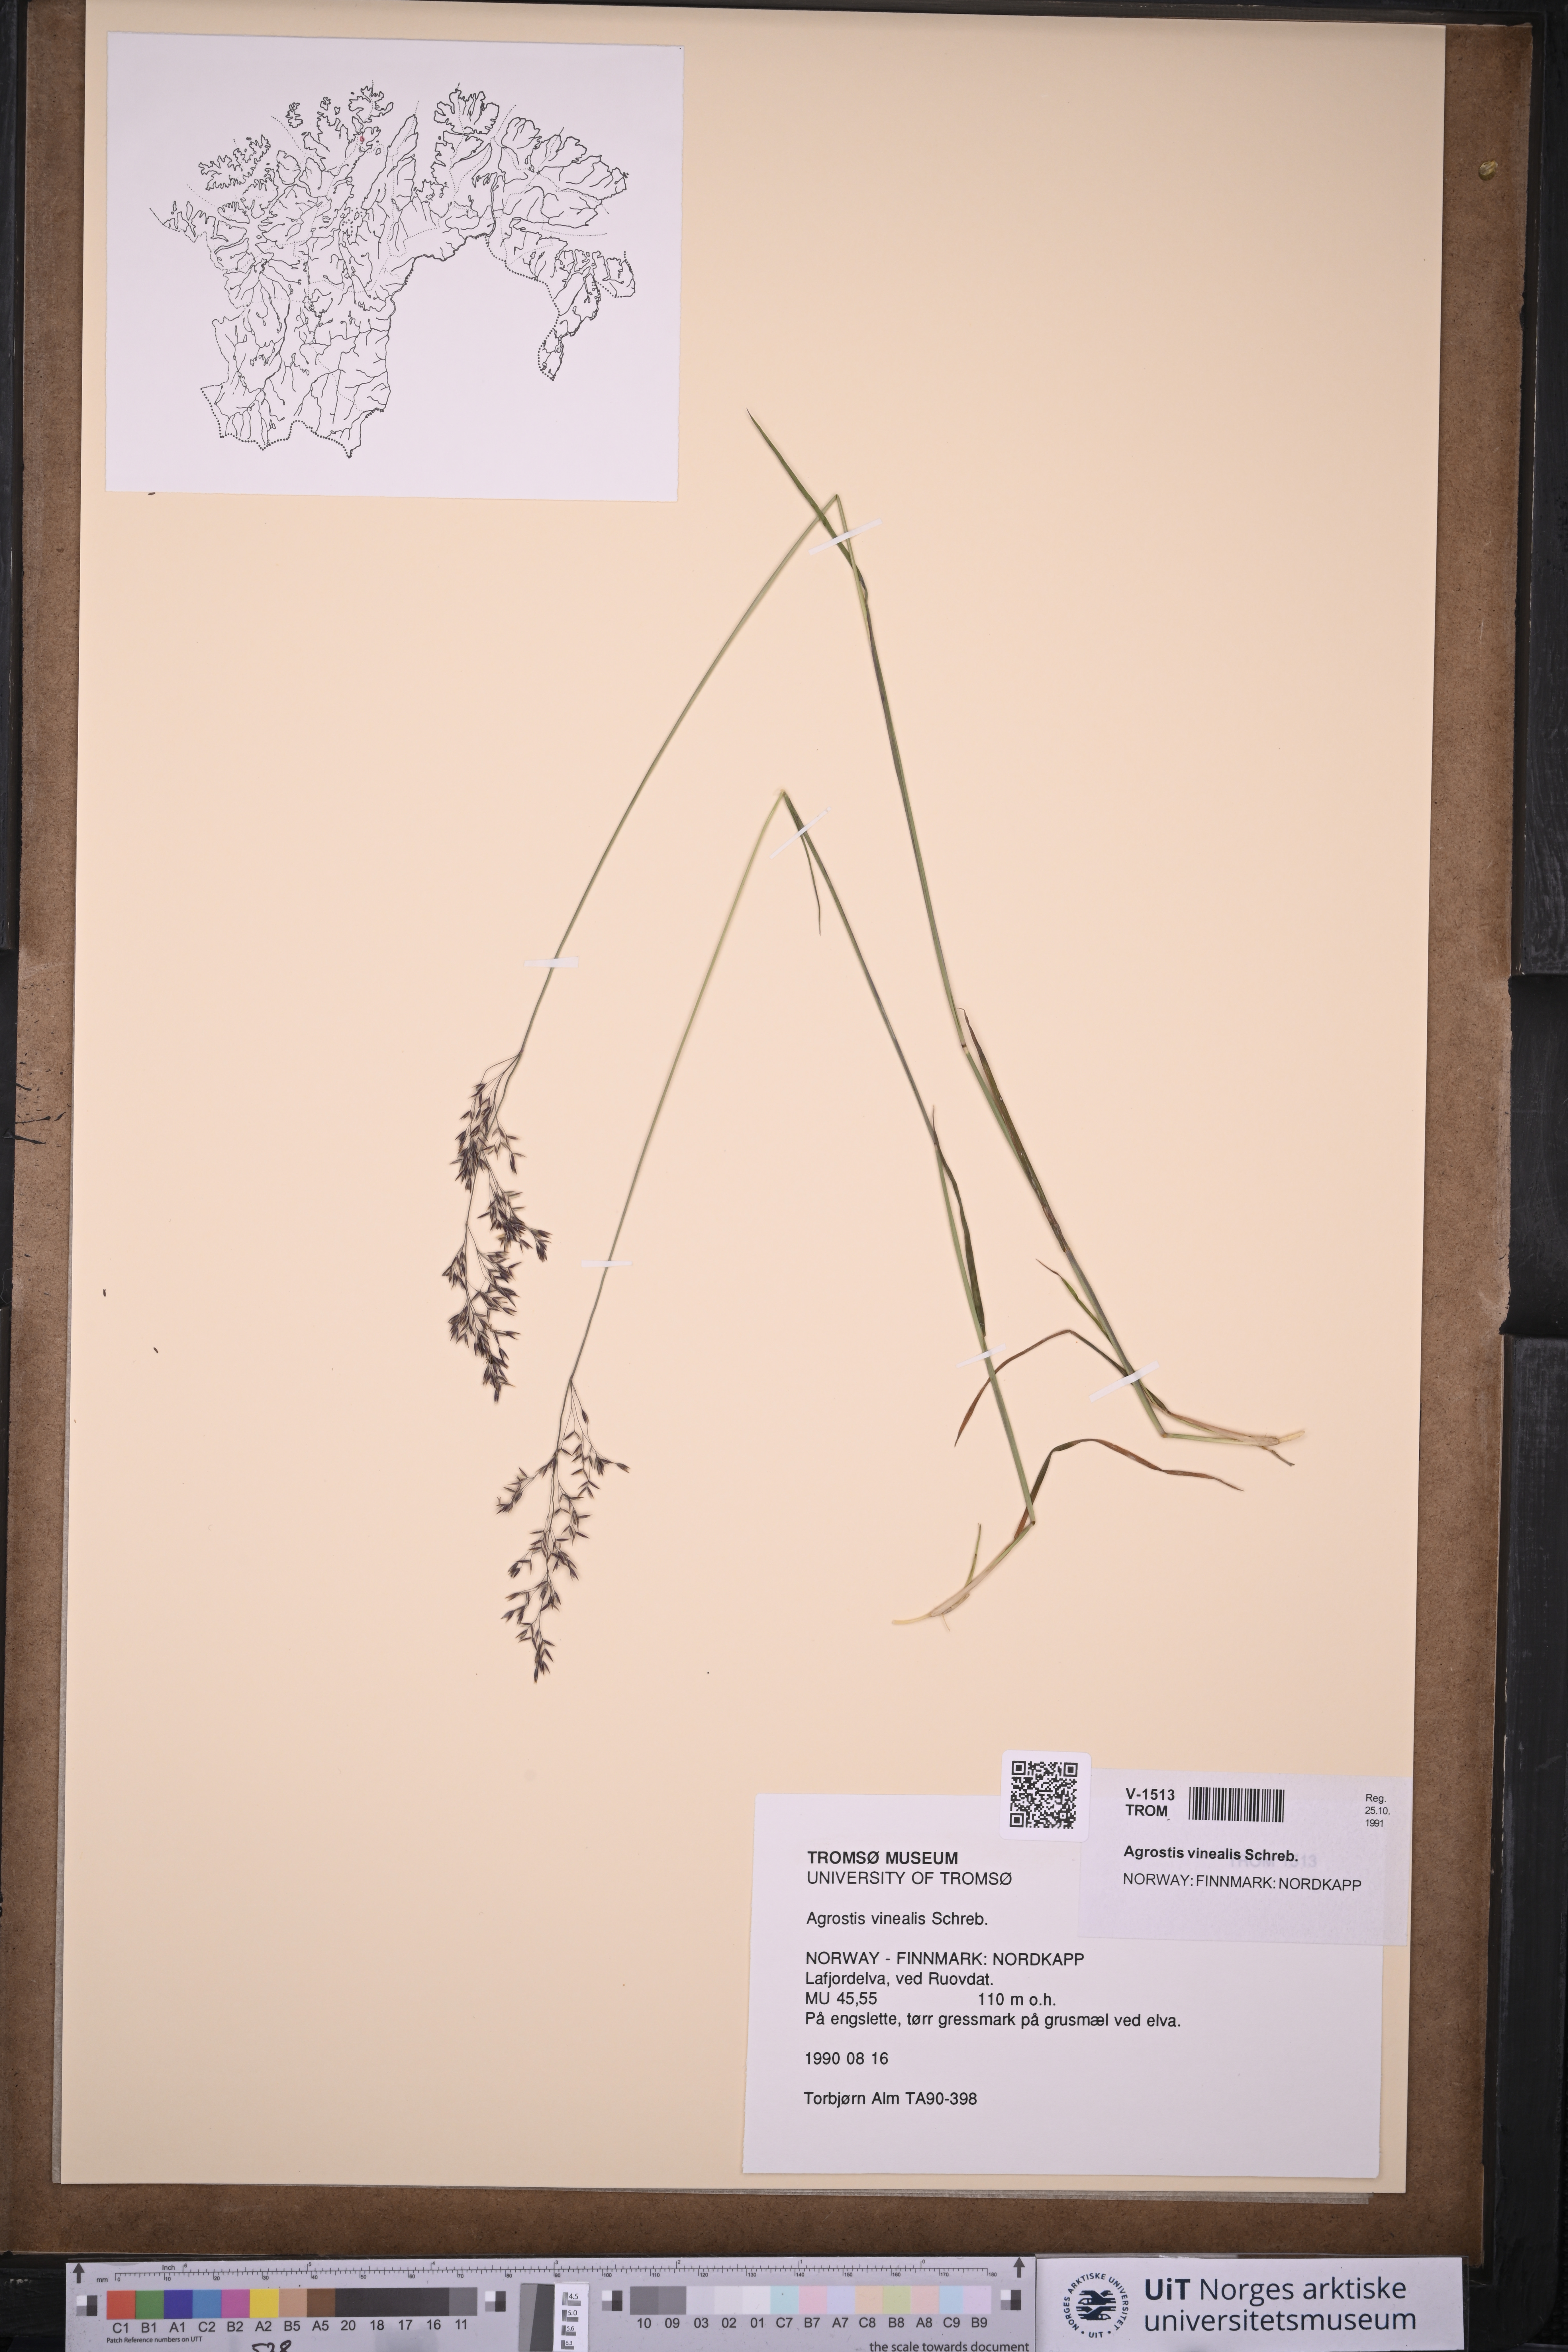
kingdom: Plantae
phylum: Tracheophyta
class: Liliopsida
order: Poales
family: Poaceae
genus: Agrostis
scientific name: Agrostis vinealis
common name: Brown bent
